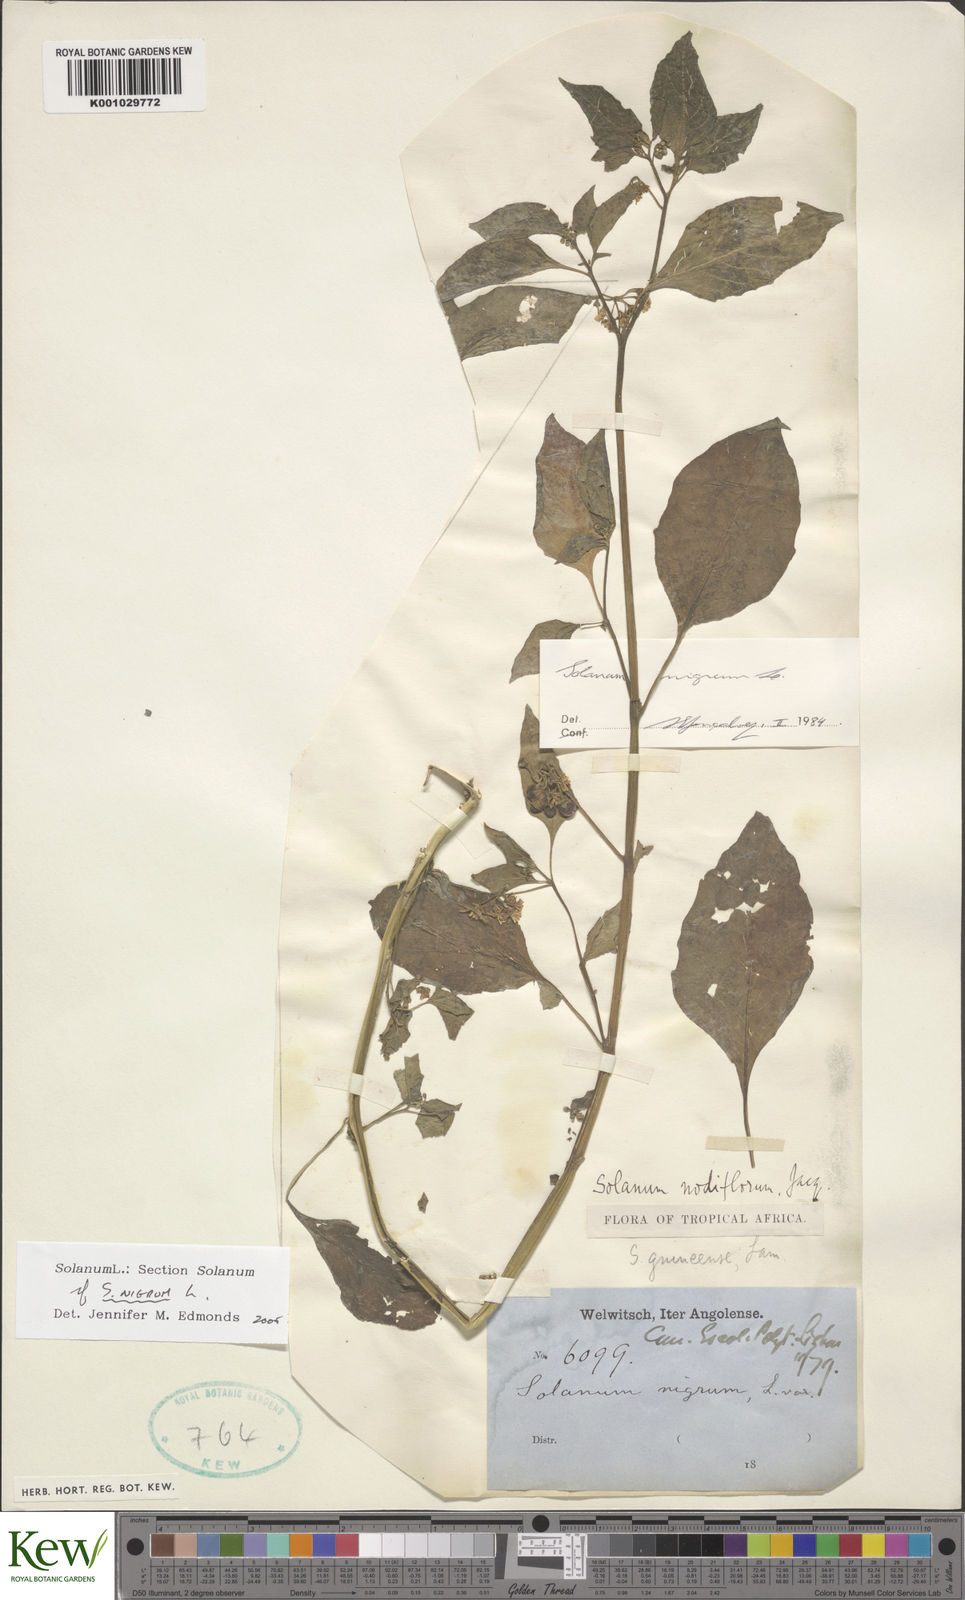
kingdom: Plantae
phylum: Tracheophyta
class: Magnoliopsida
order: Solanales
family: Solanaceae
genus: Solanum
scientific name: Solanum nigrum
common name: Black nightshade
